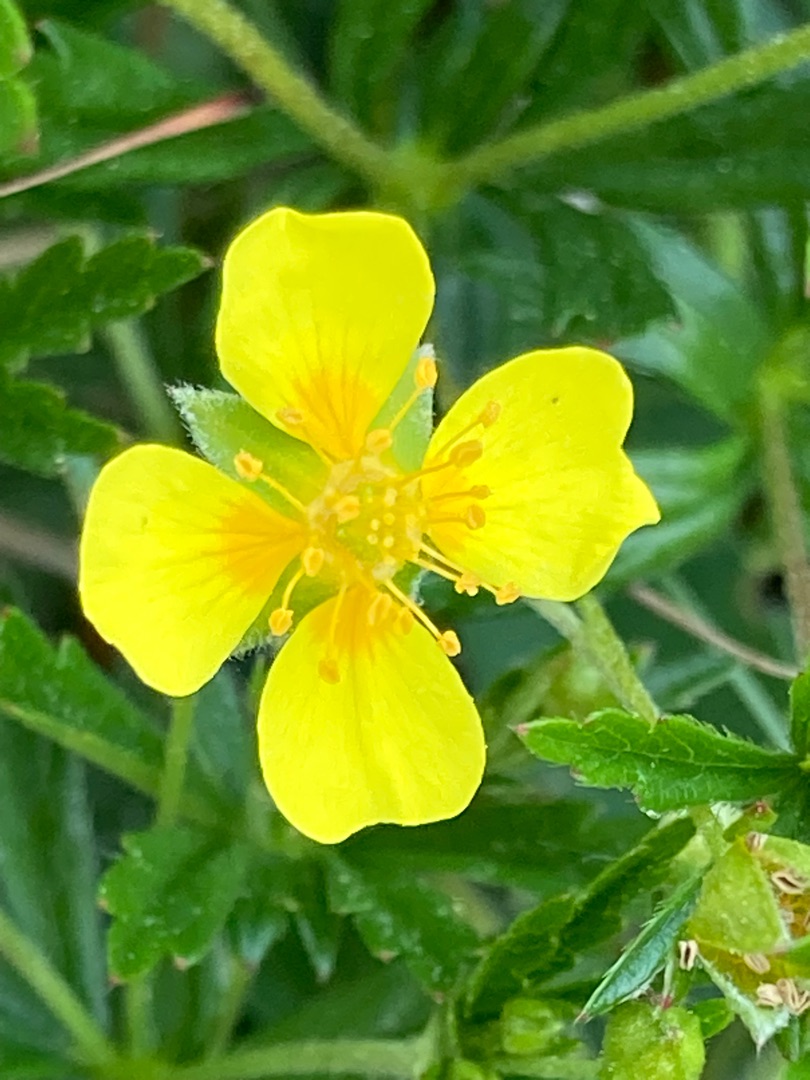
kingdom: Plantae
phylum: Tracheophyta
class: Magnoliopsida
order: Rosales
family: Rosaceae
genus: Potentilla
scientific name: Potentilla erecta
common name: Tormentil
